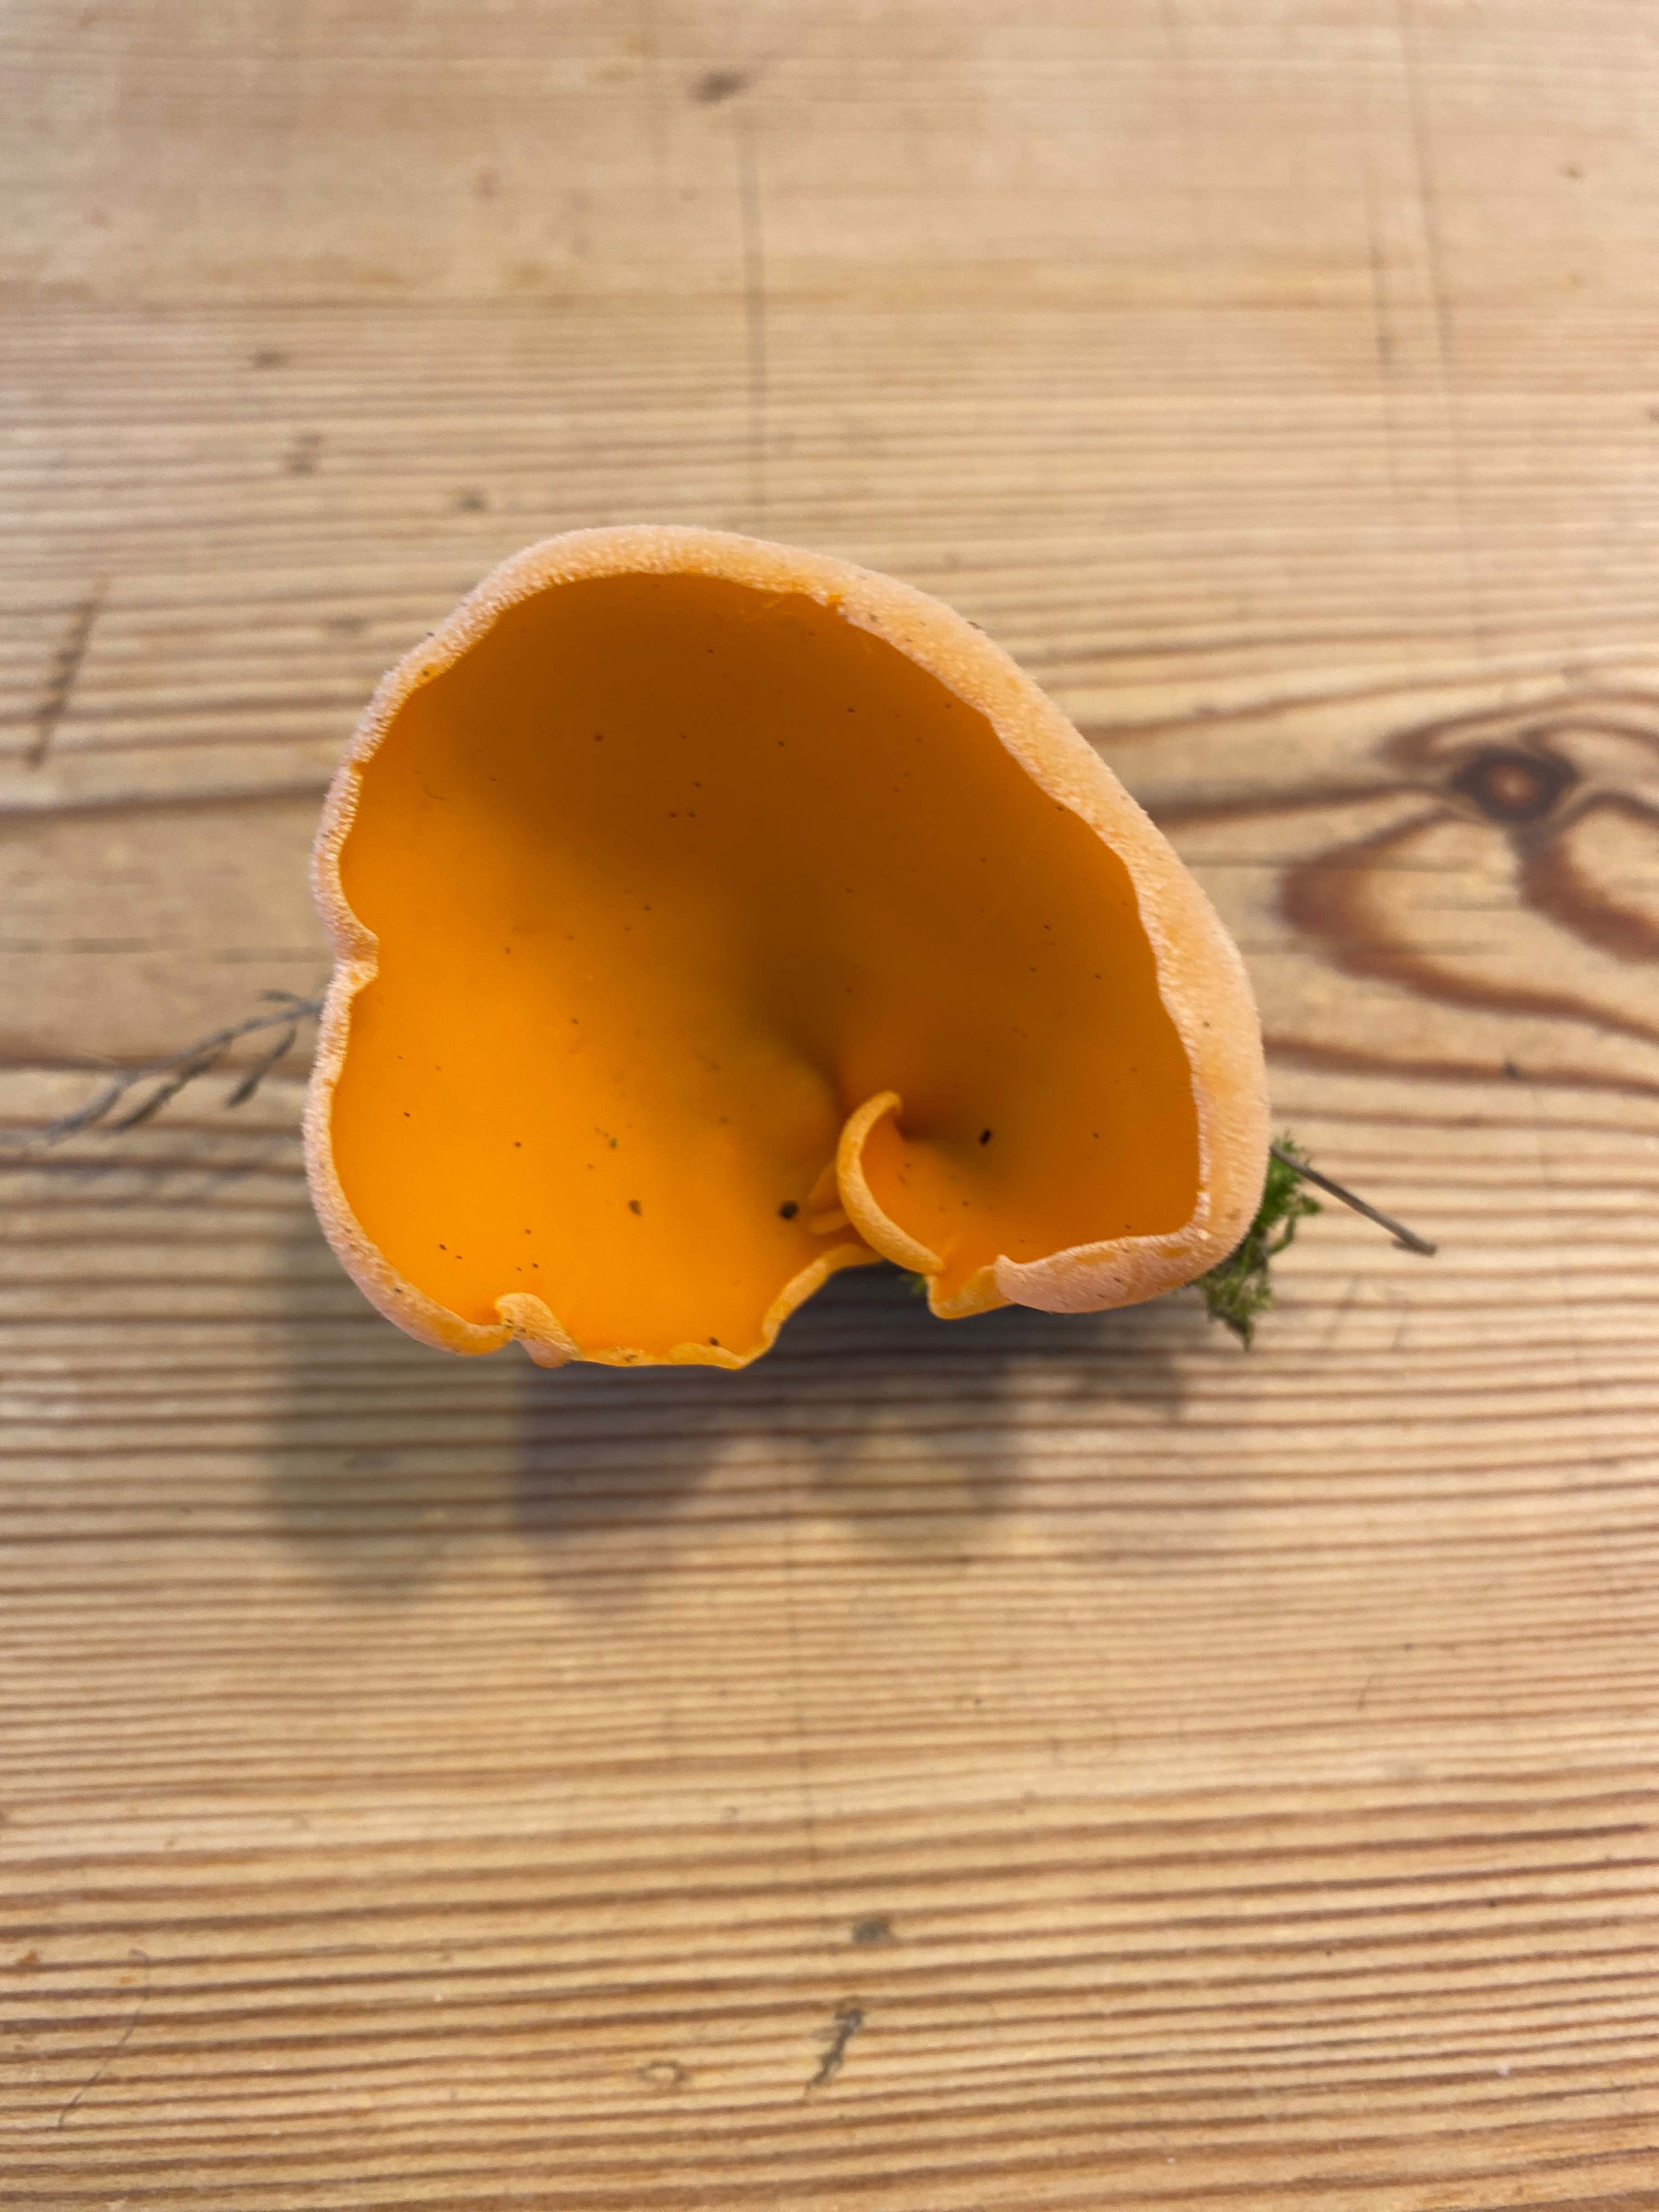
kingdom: Fungi
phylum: Ascomycota
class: Pezizomycetes
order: Pezizales
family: Pyronemataceae
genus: Aleuria
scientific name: Aleuria aurantia
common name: almindelig orangebæger
